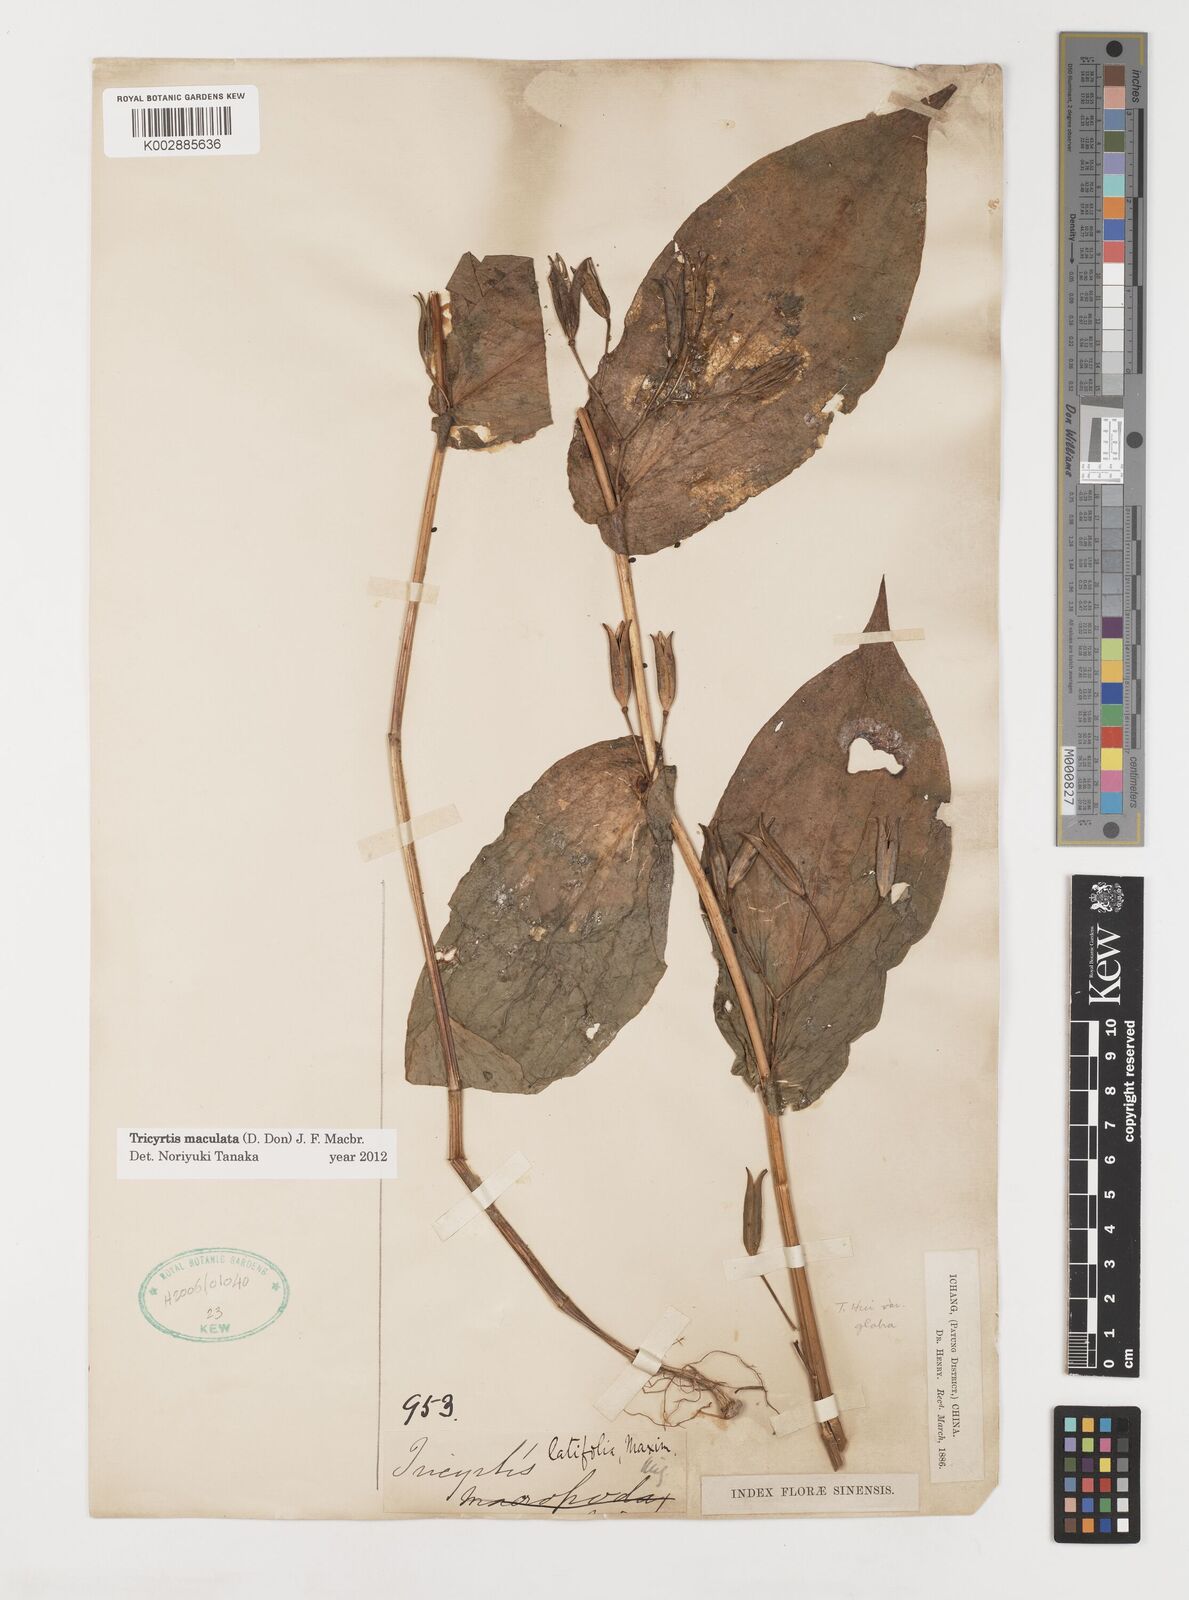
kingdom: Plantae
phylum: Tracheophyta
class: Liliopsida
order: Liliales
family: Liliaceae
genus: Tricyrtis
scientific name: Tricyrtis maculata
